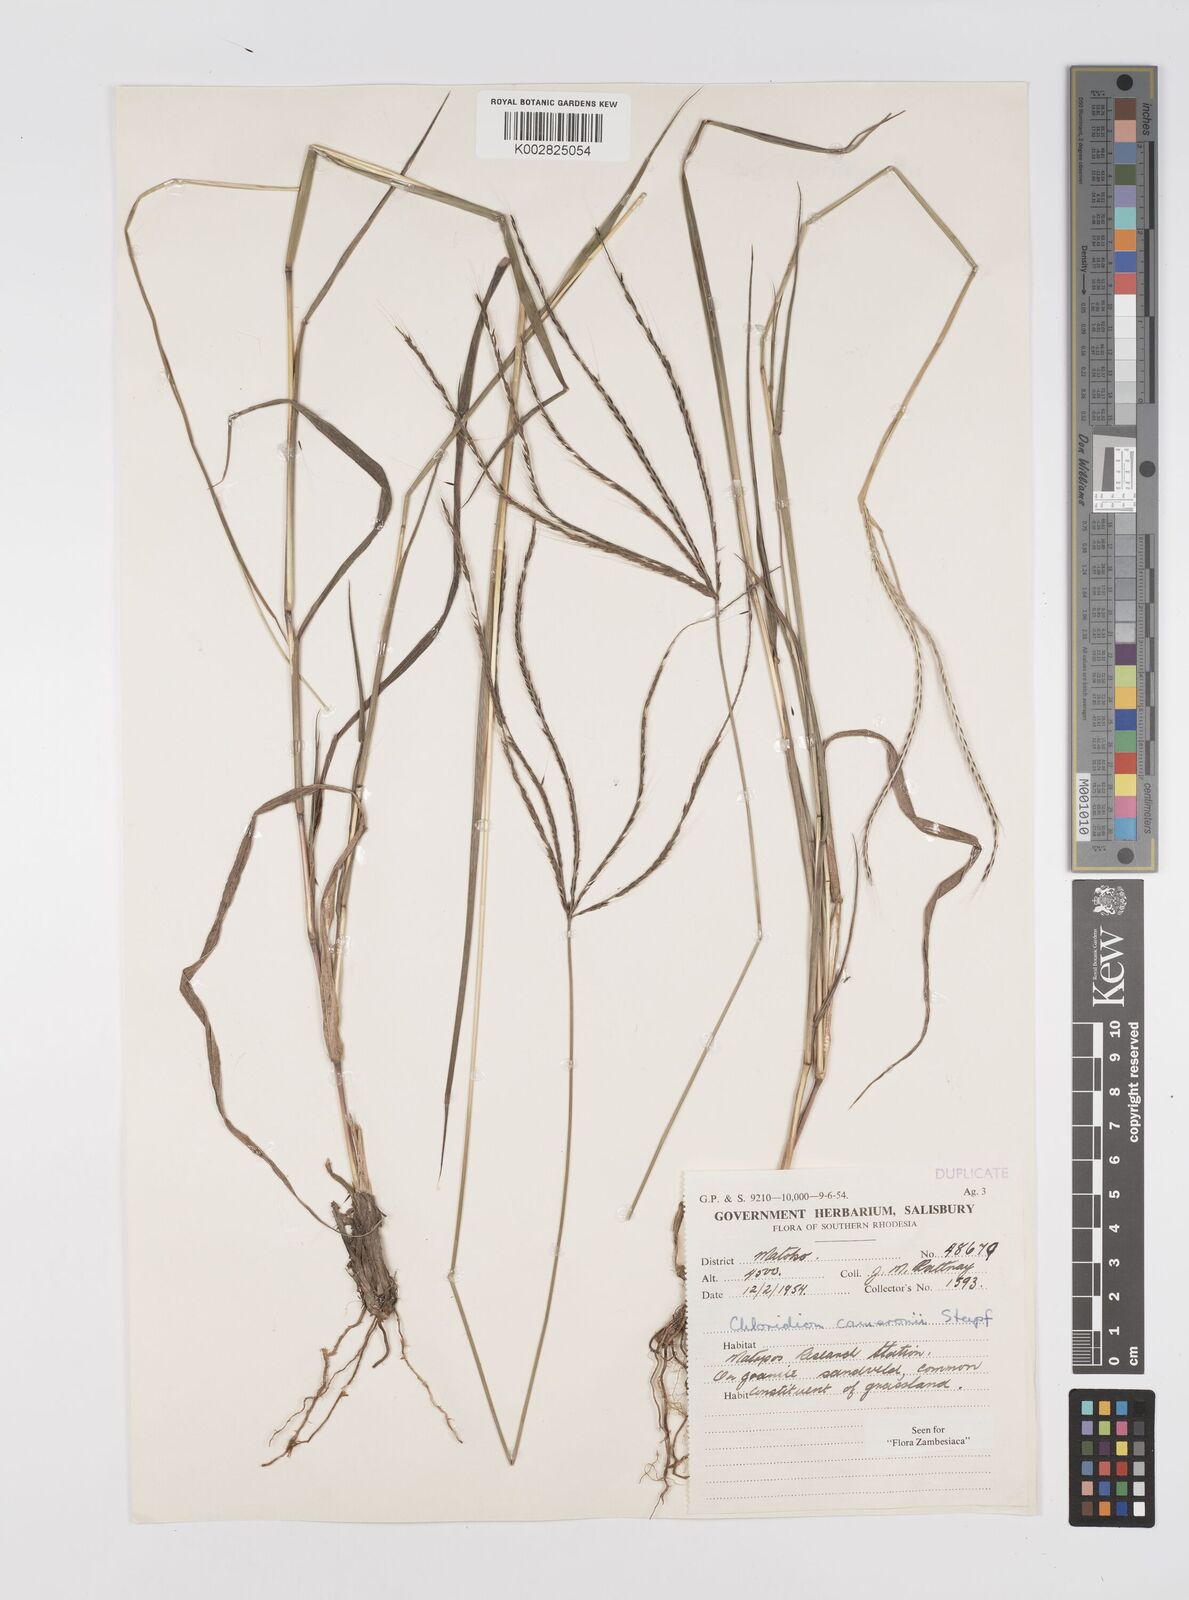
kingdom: Plantae
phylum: Tracheophyta
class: Liliopsida
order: Poales
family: Poaceae
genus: Stereochlaena
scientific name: Stereochlaena cameronii
